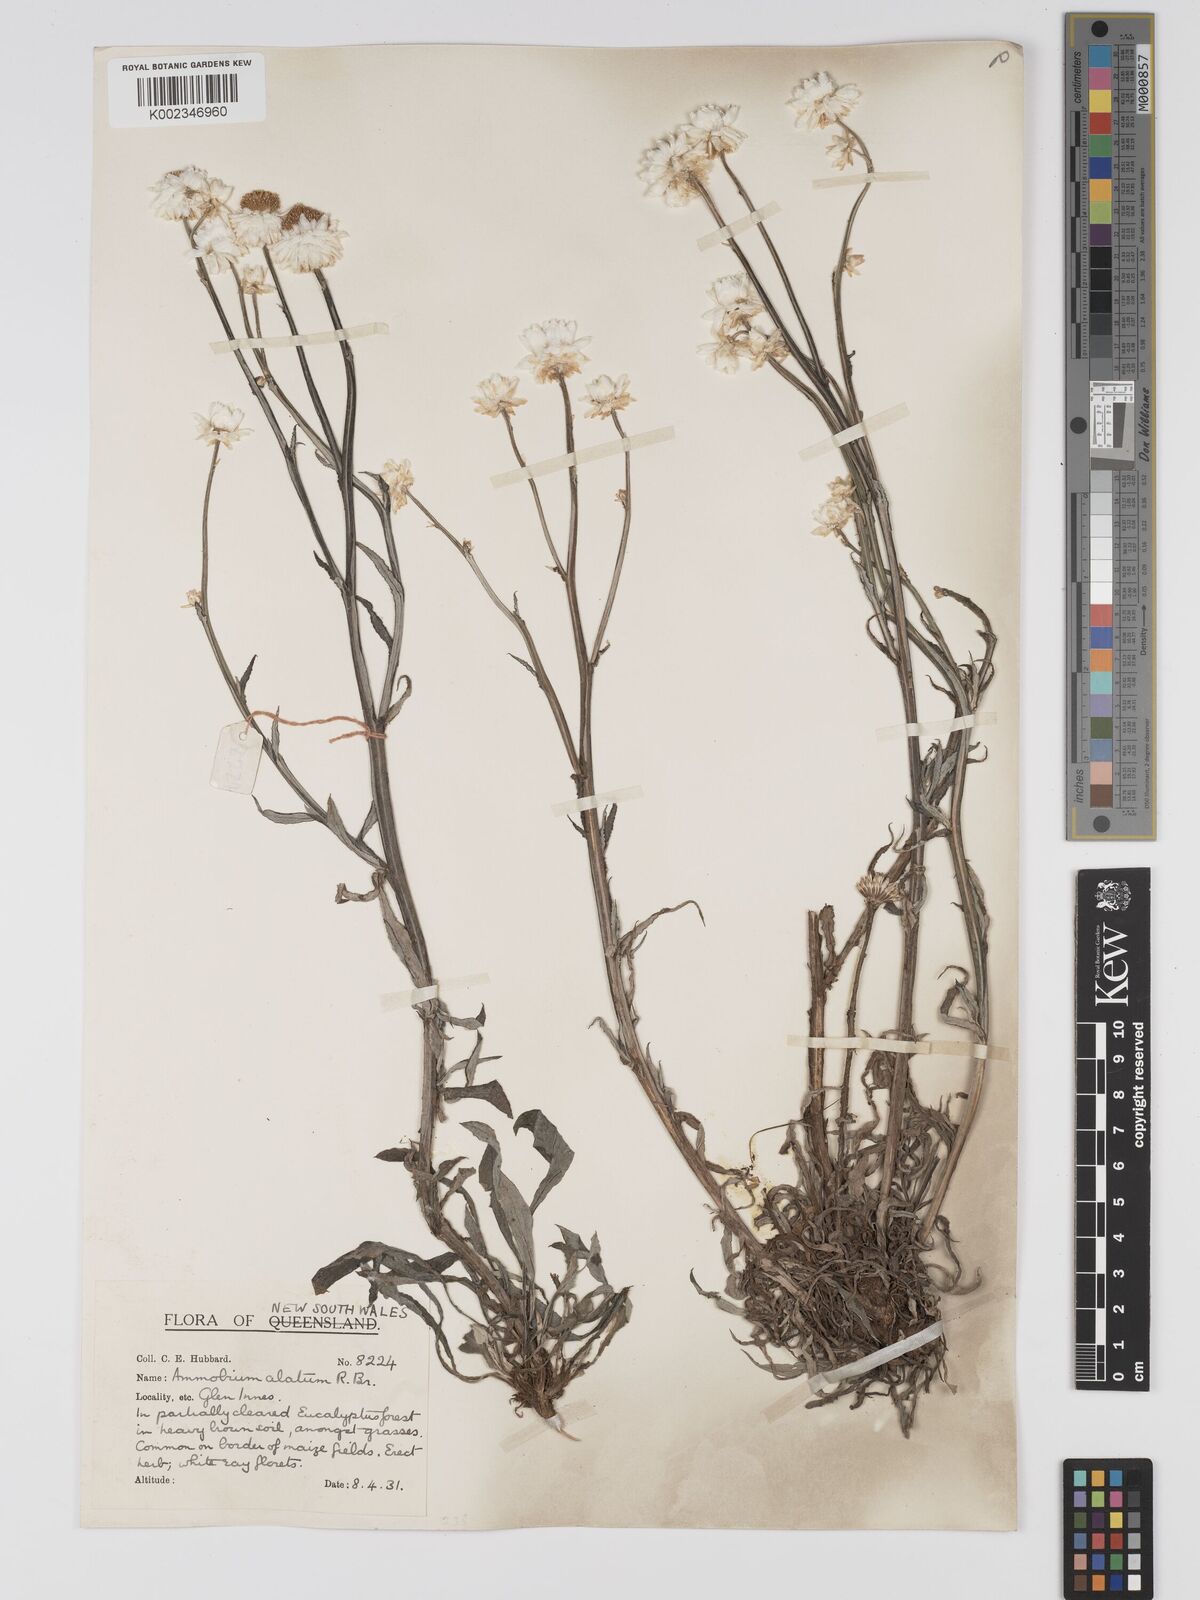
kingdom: Plantae
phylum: Tracheophyta
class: Magnoliopsida
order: Asterales
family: Asteraceae
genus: Ammobium
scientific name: Ammobium alatum
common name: Winged everlasting
